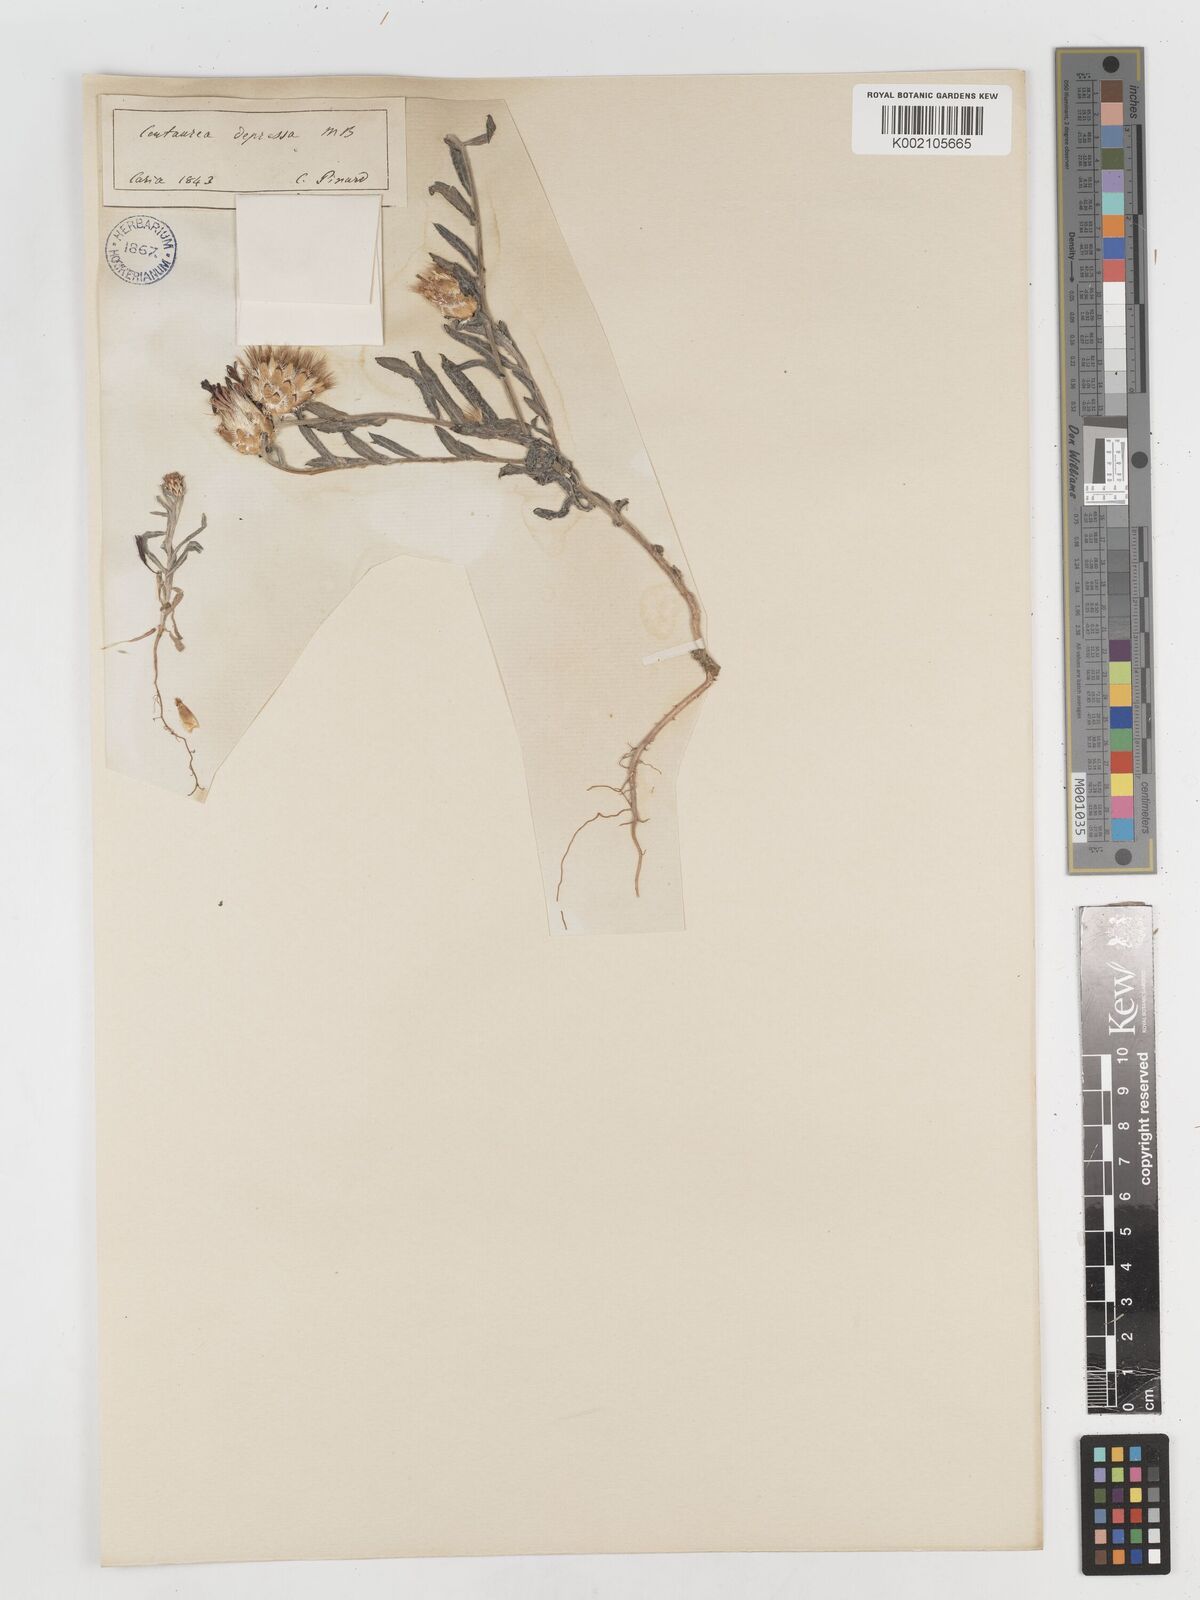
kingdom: Plantae
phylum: Tracheophyta
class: Magnoliopsida
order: Asterales
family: Asteraceae
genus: Centaurea
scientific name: Centaurea depressa
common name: Iranian knapweed
